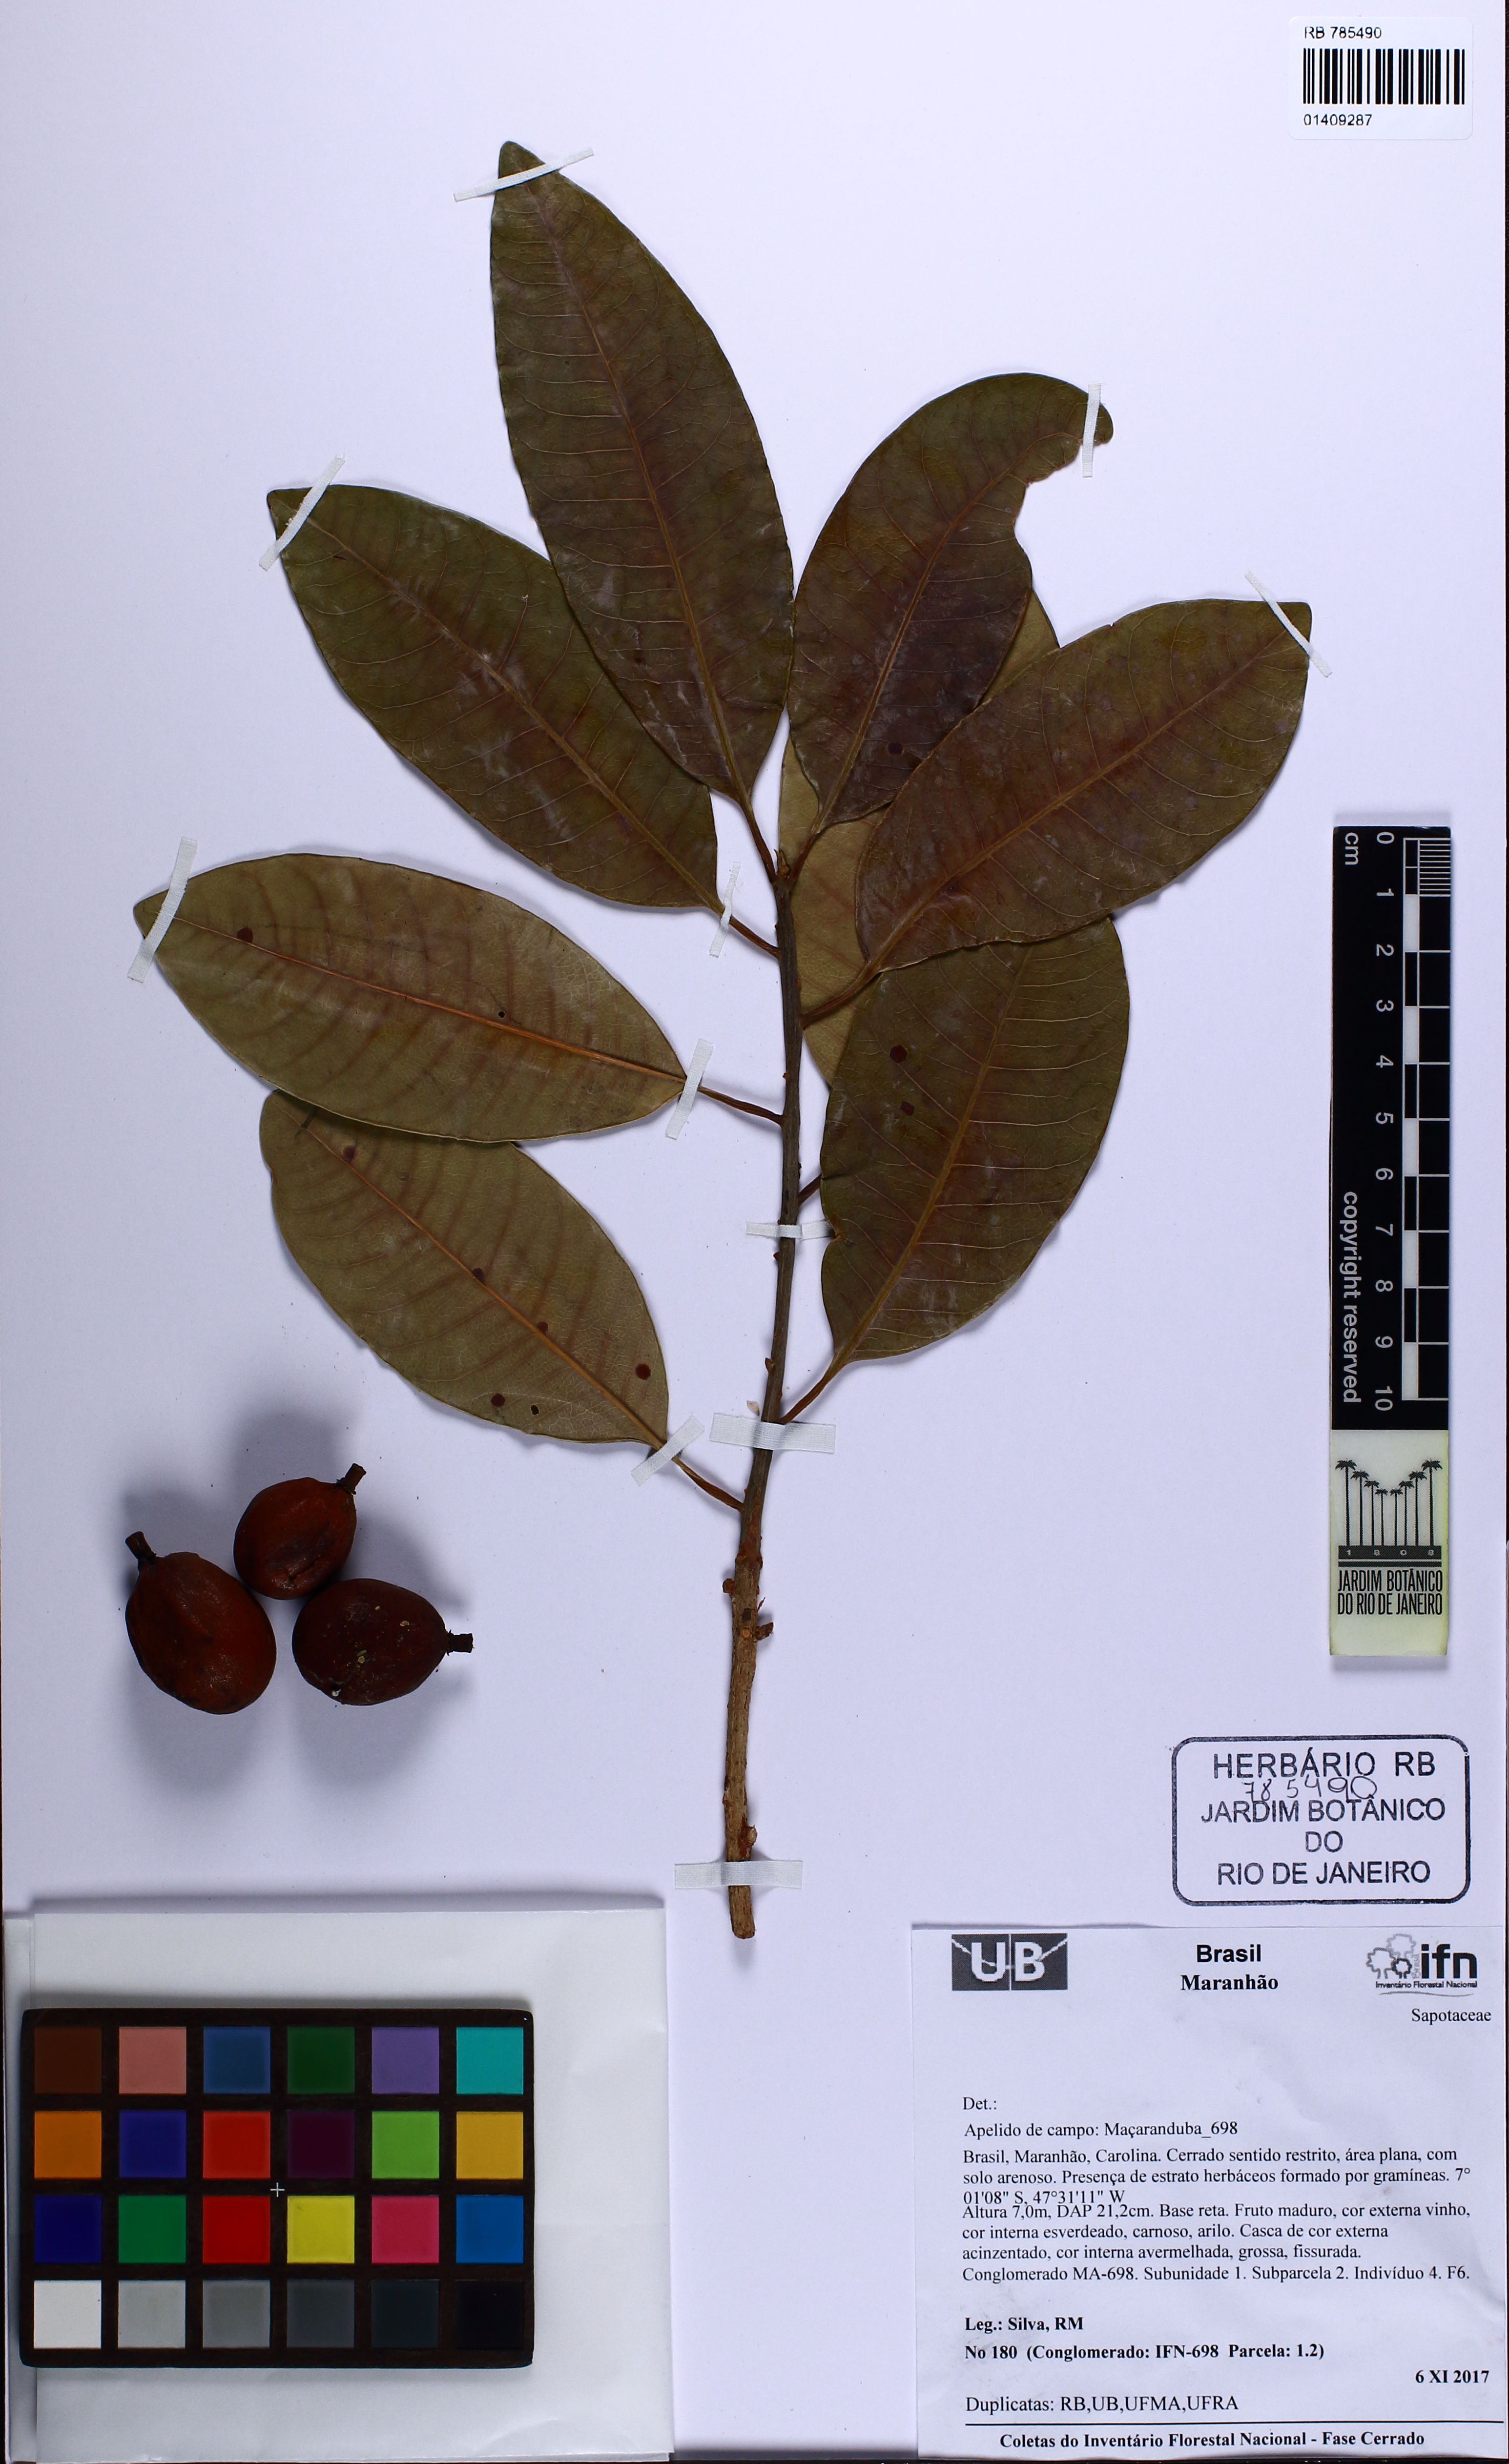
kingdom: Plantae
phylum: Tracheophyta
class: Magnoliopsida
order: Ericales
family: Sapotaceae
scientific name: Sapotaceae
